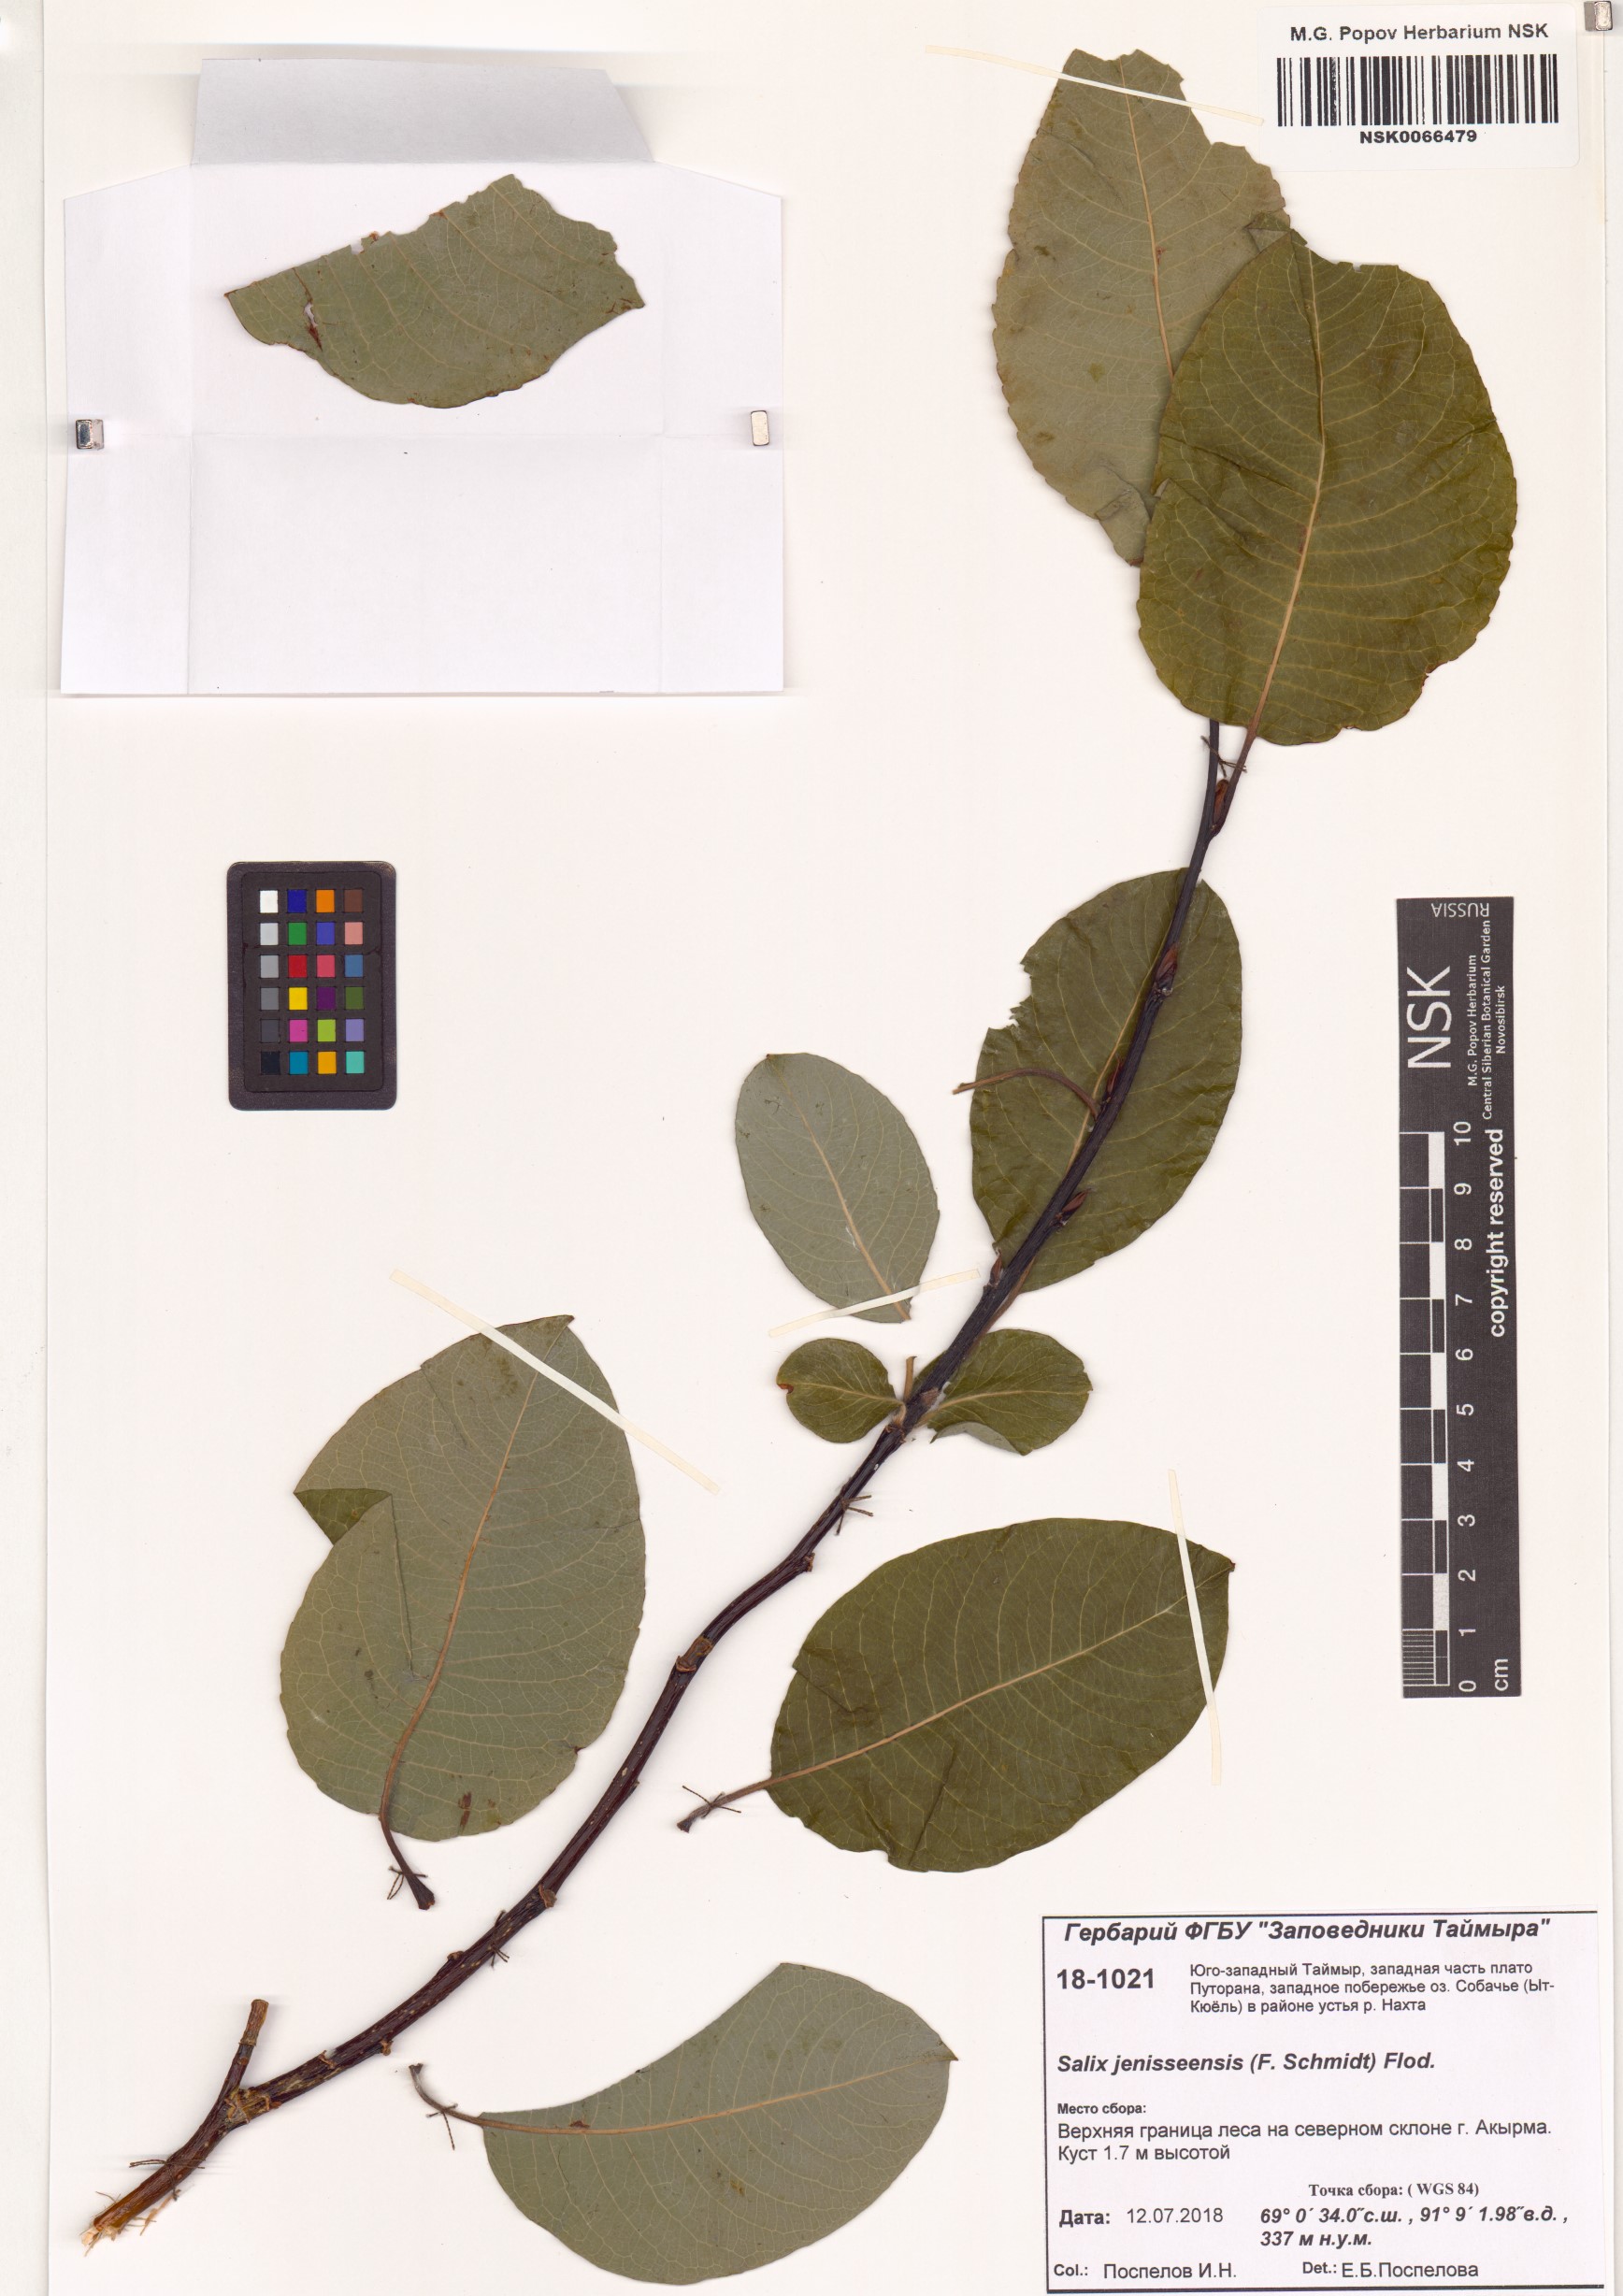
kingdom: Plantae
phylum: Tracheophyta
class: Magnoliopsida
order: Malpighiales
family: Salicaceae
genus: Salix
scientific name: Salix jenisseensis
